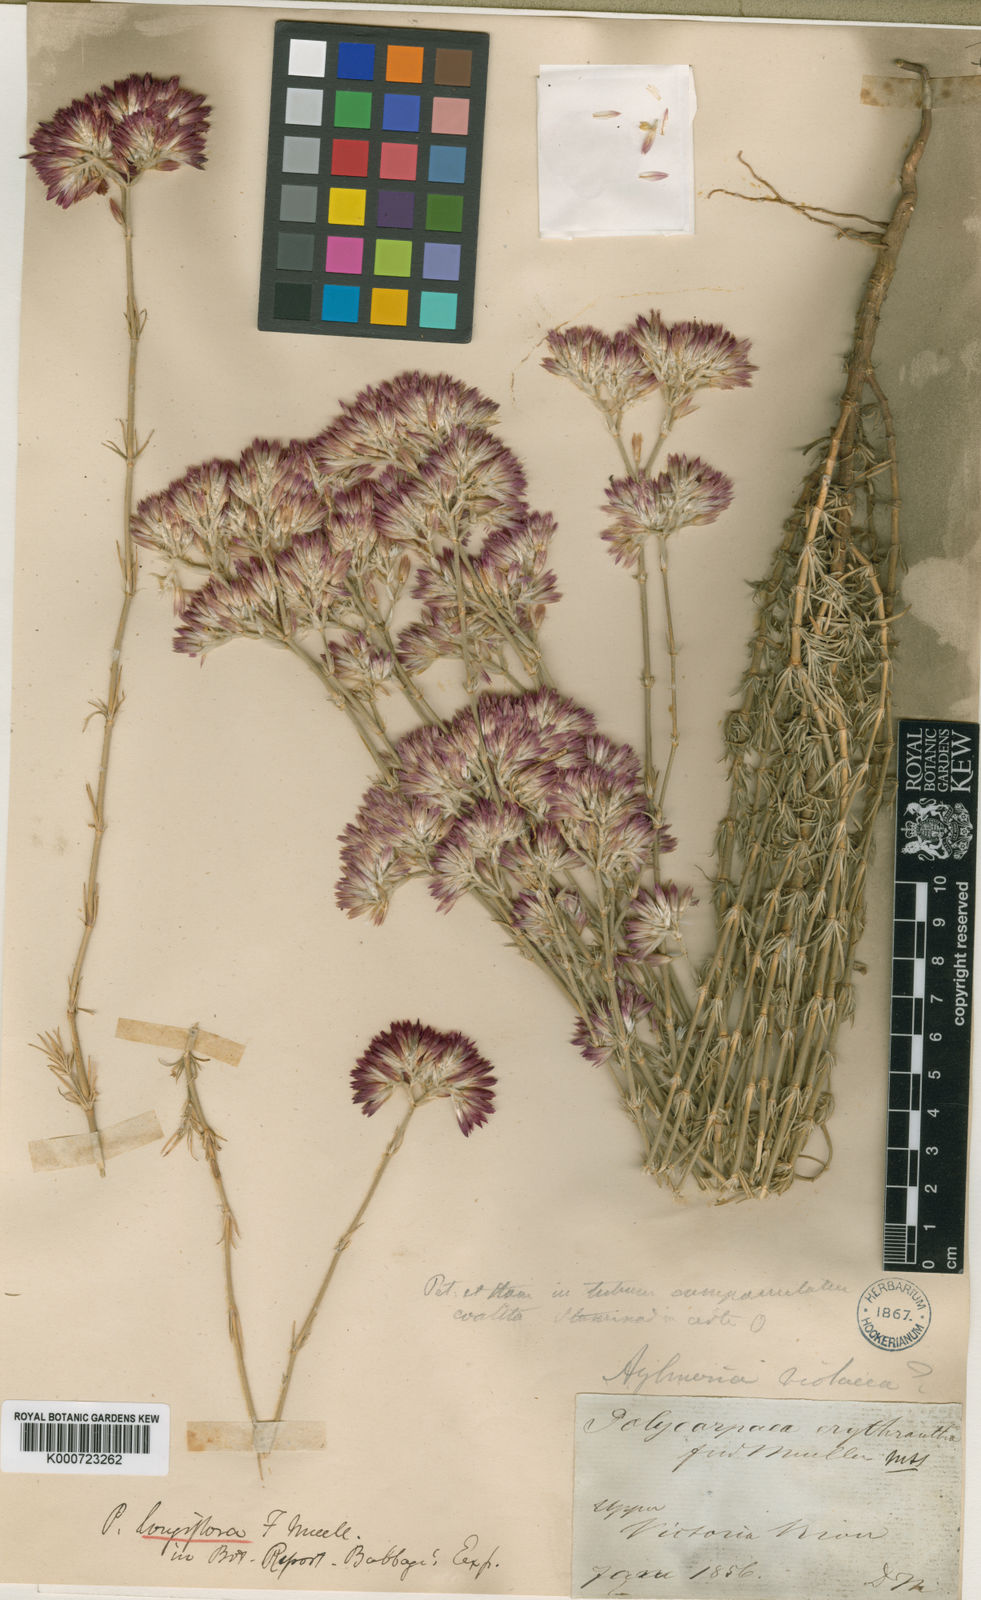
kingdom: Plantae
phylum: Tracheophyta
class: Magnoliopsida
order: Caryophyllales
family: Caryophyllaceae
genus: Polycarpaea
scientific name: Polycarpaea longiflora
